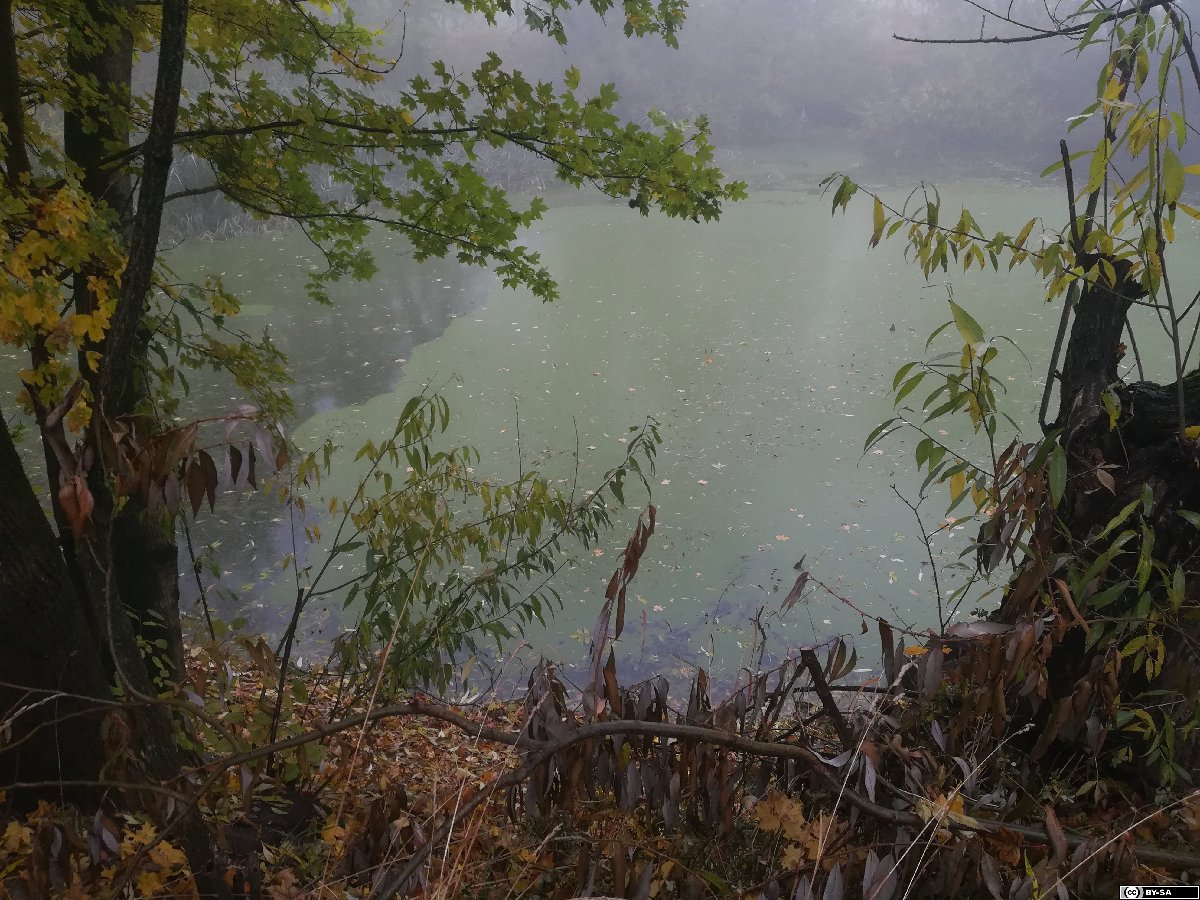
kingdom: Plantae
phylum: Tracheophyta
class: Liliopsida
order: Alismatales
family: Araceae
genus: Wolffia
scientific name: Wolffia columbiana
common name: Columbia watermeal
